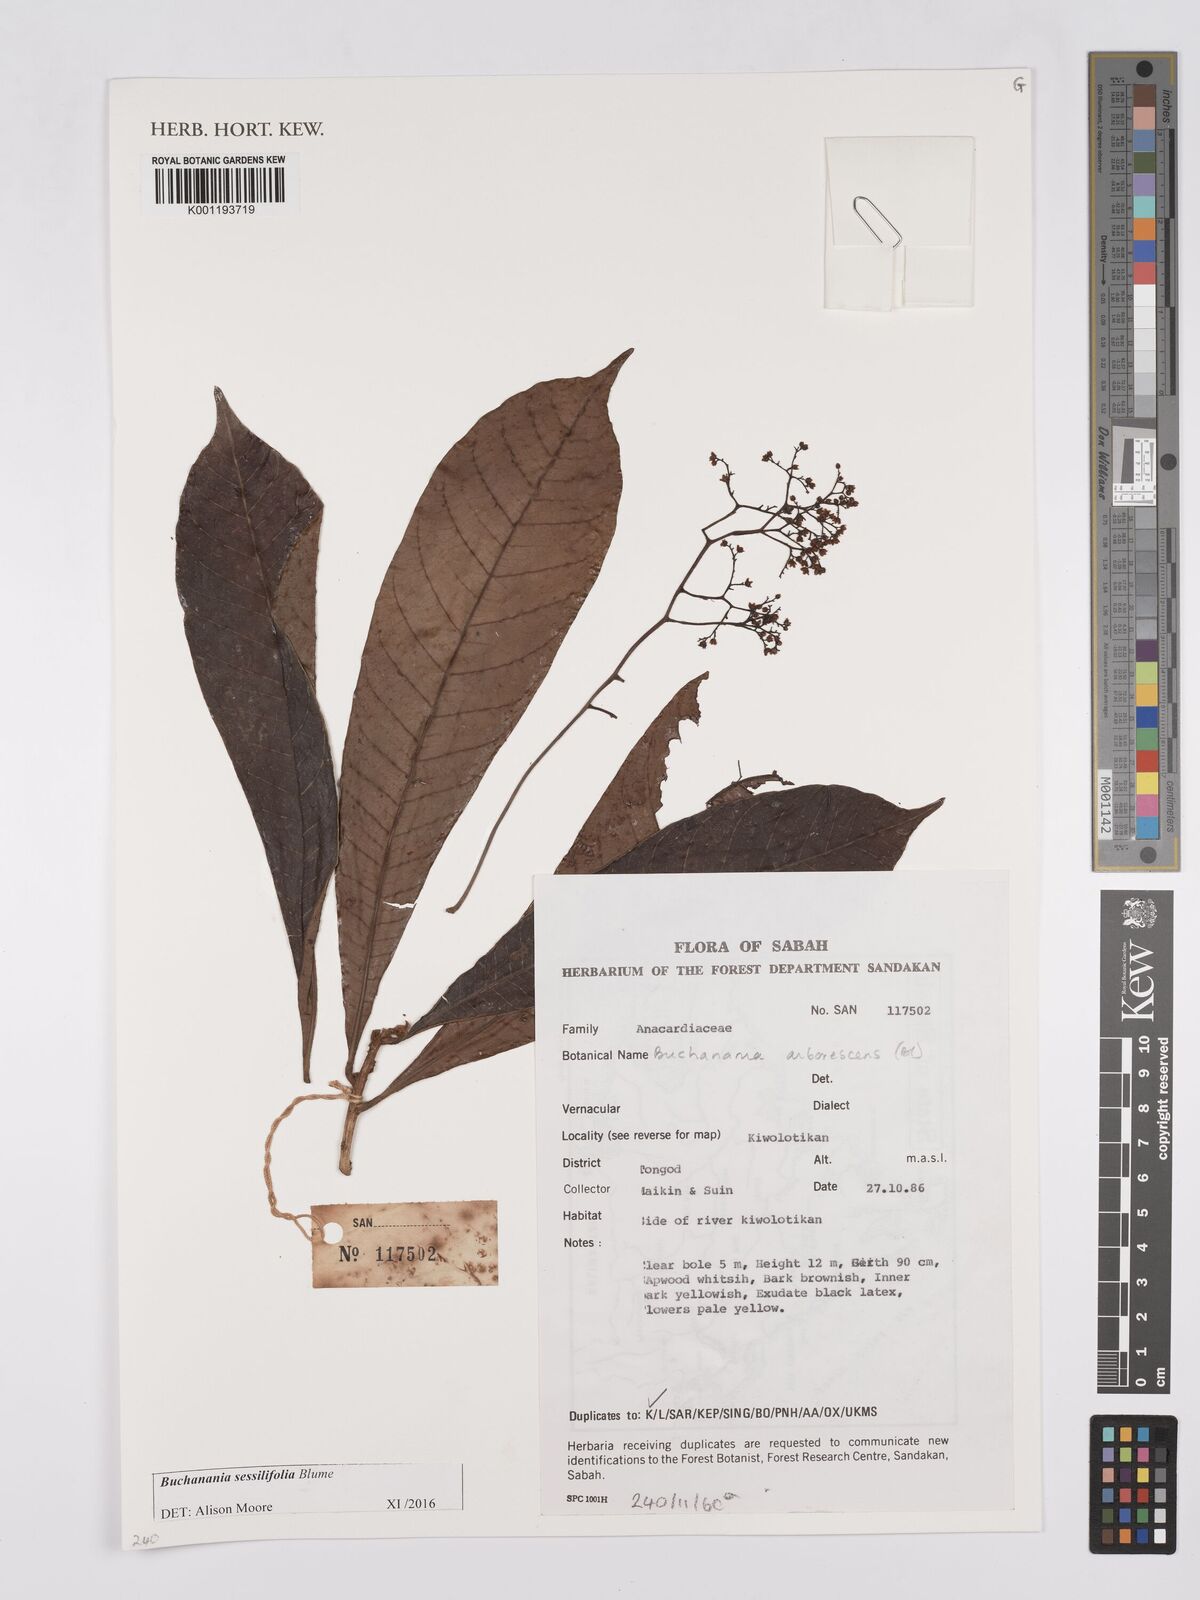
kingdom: Plantae
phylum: Tracheophyta
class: Magnoliopsida
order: Sapindales
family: Anacardiaceae
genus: Buchanania
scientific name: Buchanania sessifolia
